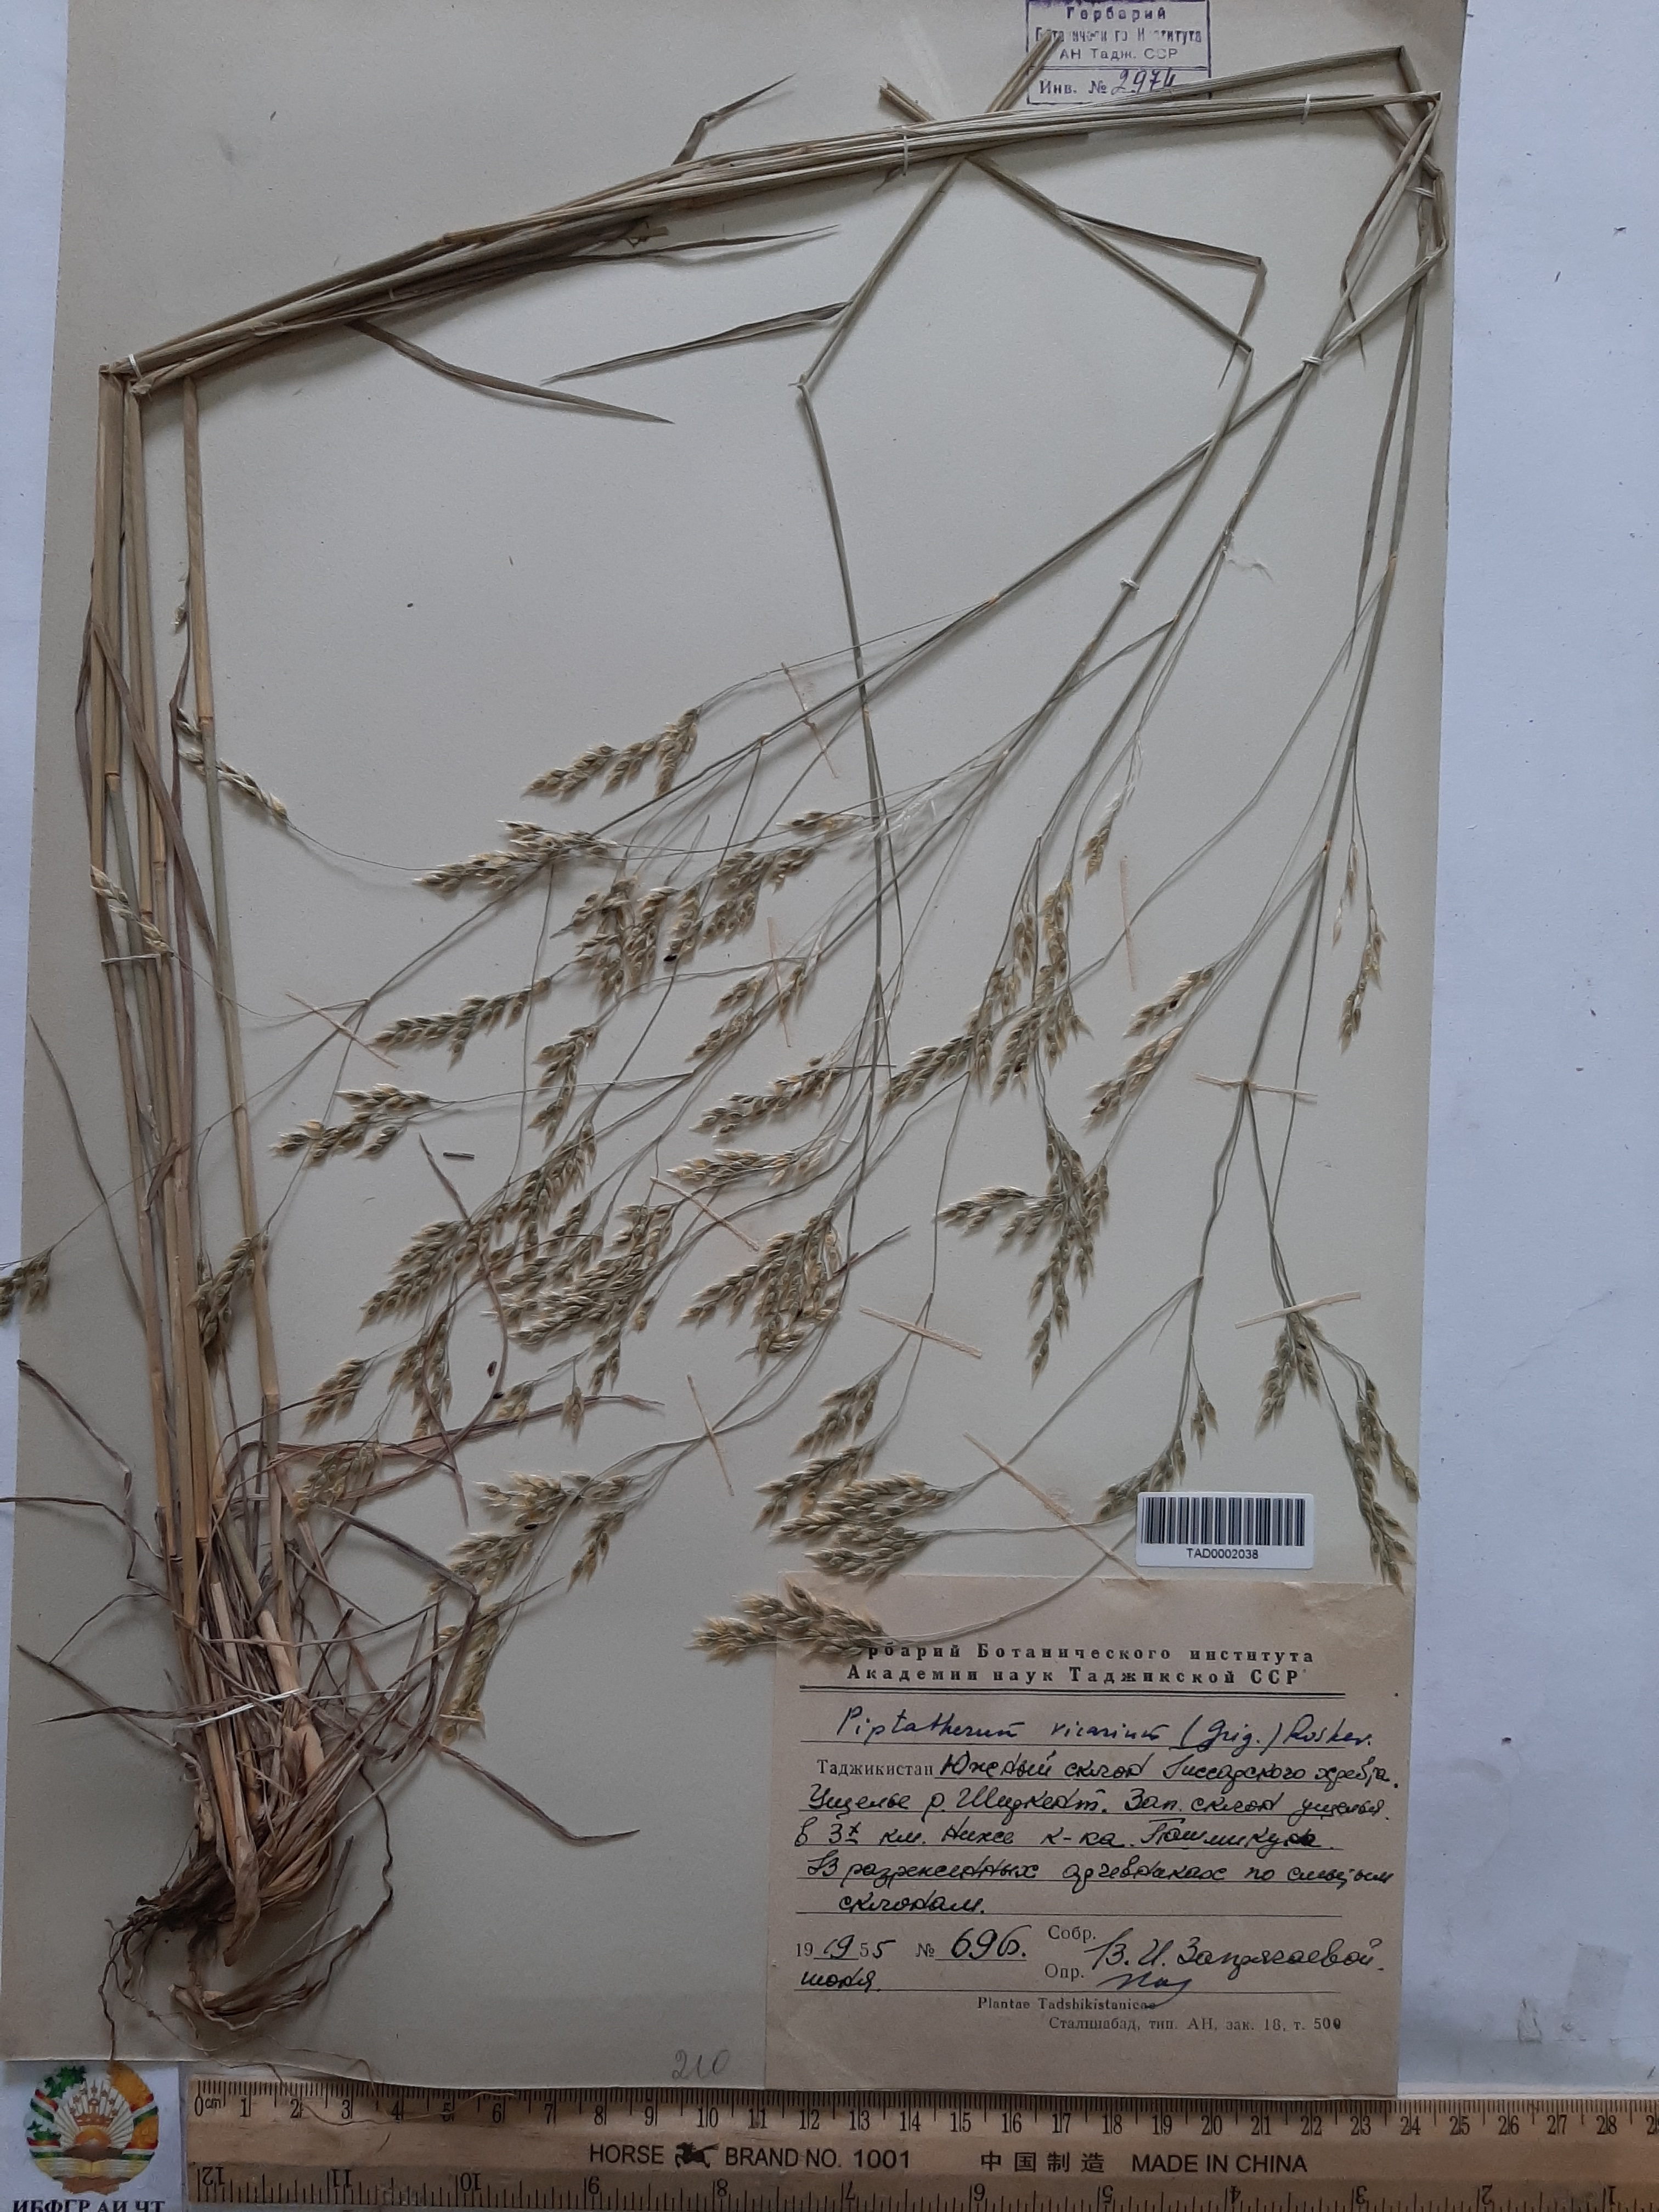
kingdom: Plantae
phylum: Tracheophyta
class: Liliopsida
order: Poales
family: Poaceae
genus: Piptatherum
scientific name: Piptatherum sogdianum
